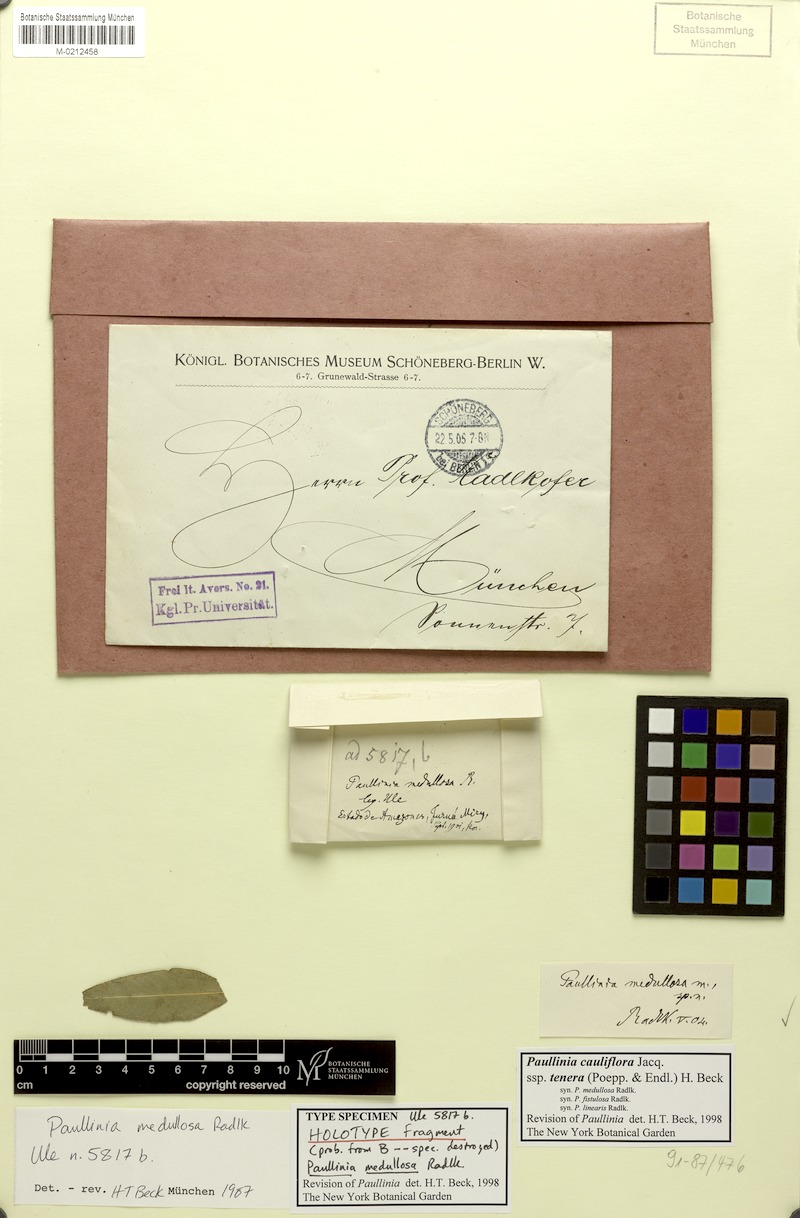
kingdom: Plantae
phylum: Tracheophyta
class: Magnoliopsida
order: Sapindales
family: Sapindaceae
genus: Paullinia
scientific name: Paullinia cauliflora
